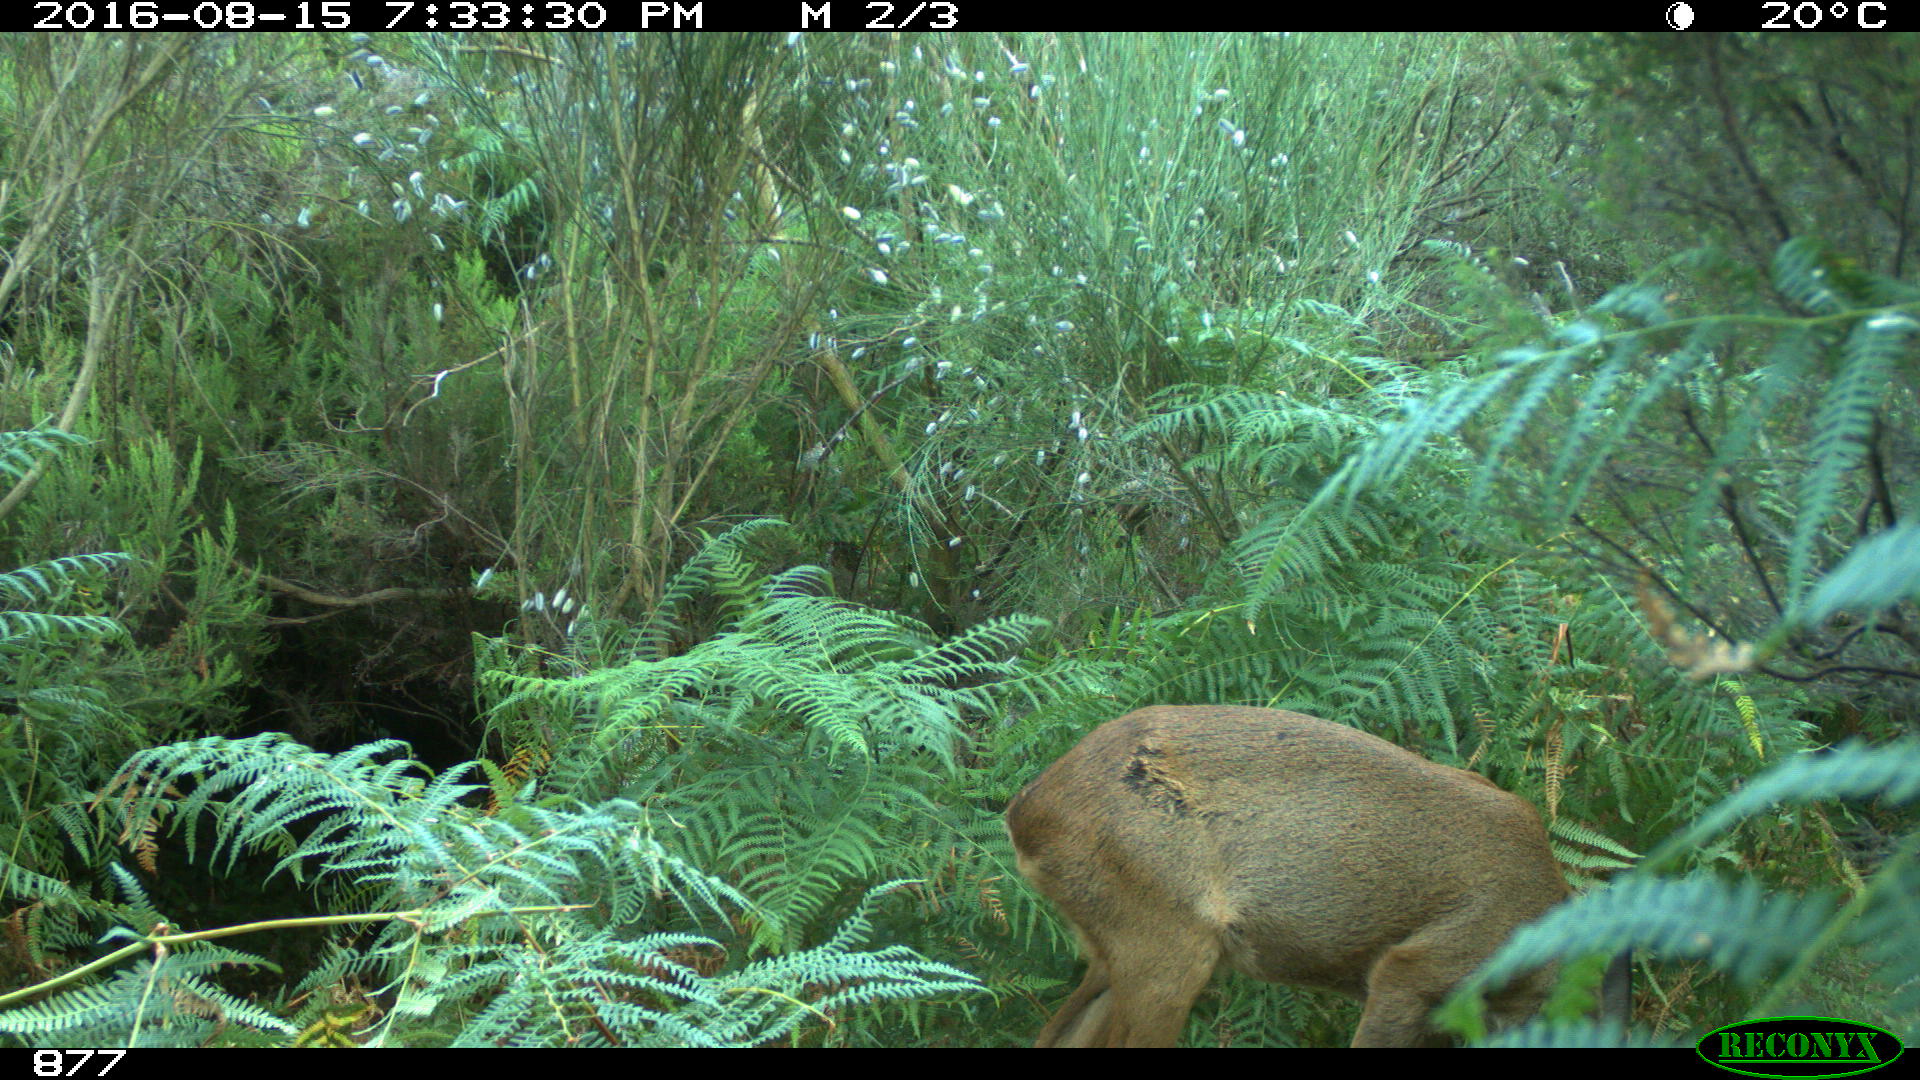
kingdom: Animalia
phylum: Chordata
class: Mammalia
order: Artiodactyla
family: Cervidae
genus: Capreolus
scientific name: Capreolus capreolus
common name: Western roe deer
